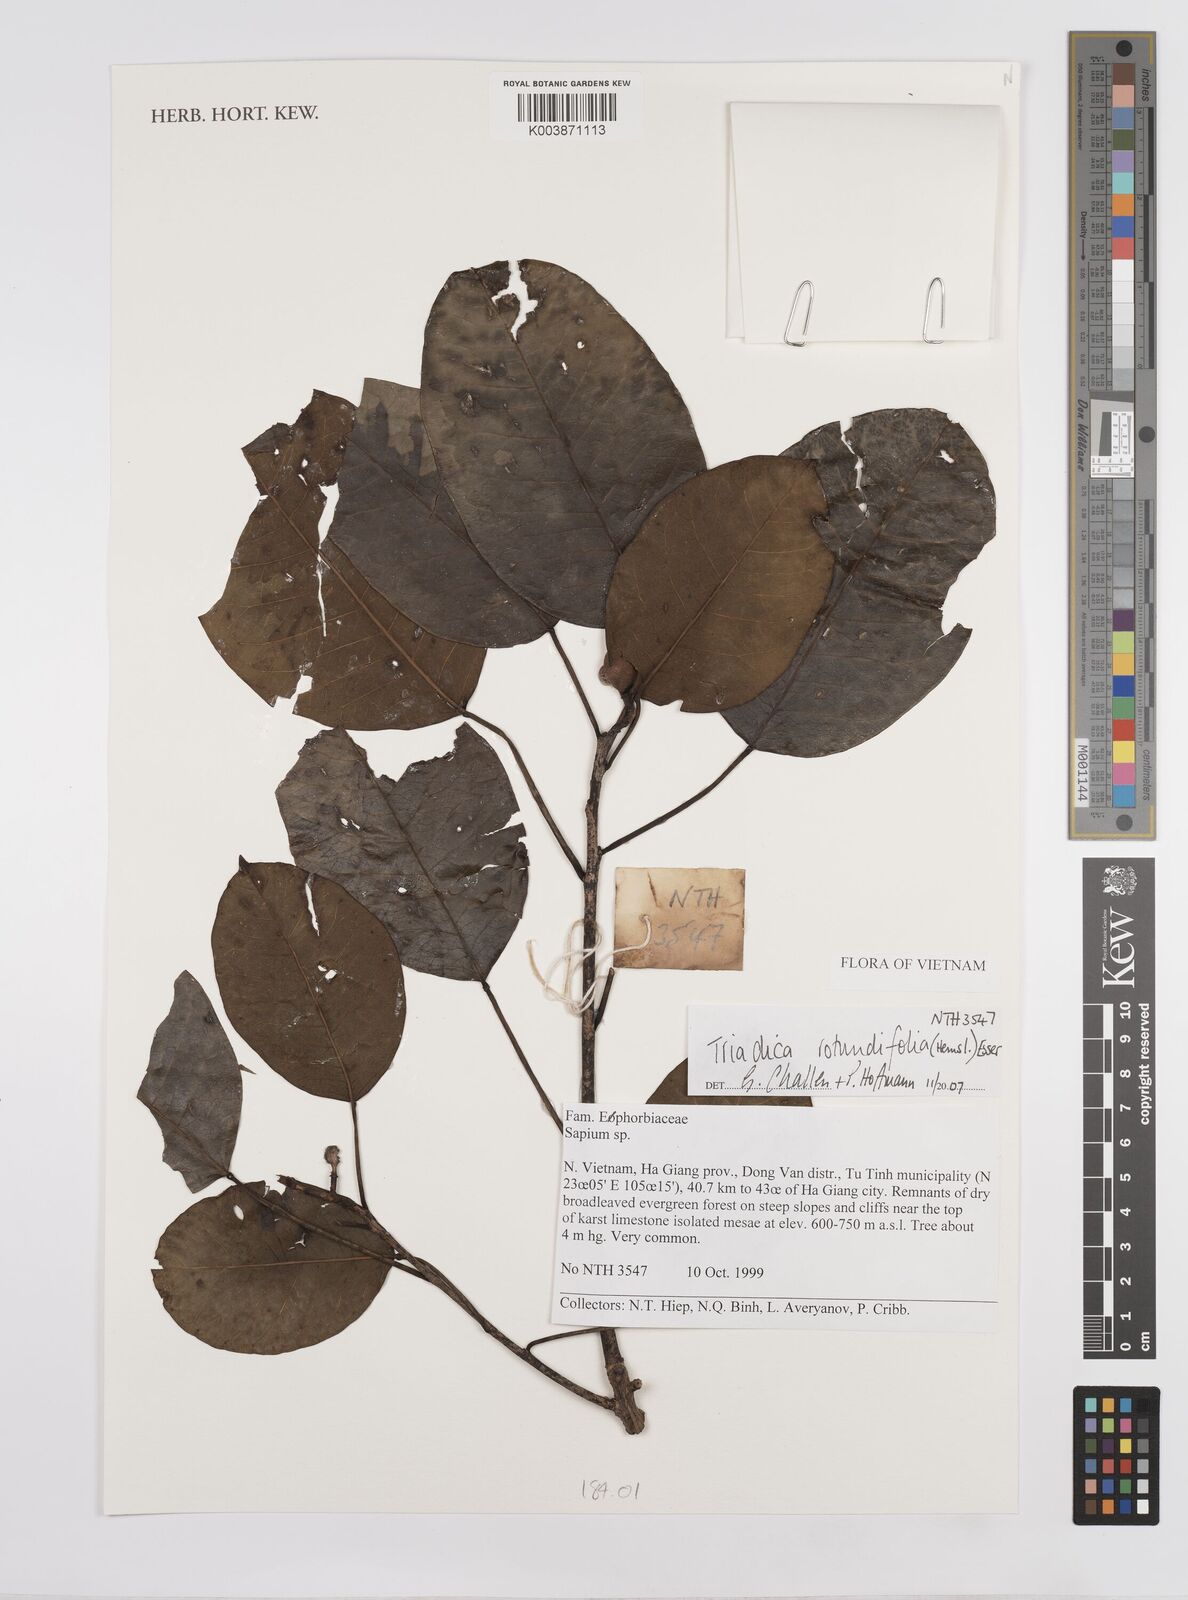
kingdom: Plantae
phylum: Tracheophyta
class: Magnoliopsida
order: Malpighiales
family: Euphorbiaceae
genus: Triadica
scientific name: Triadica rotundifolia
